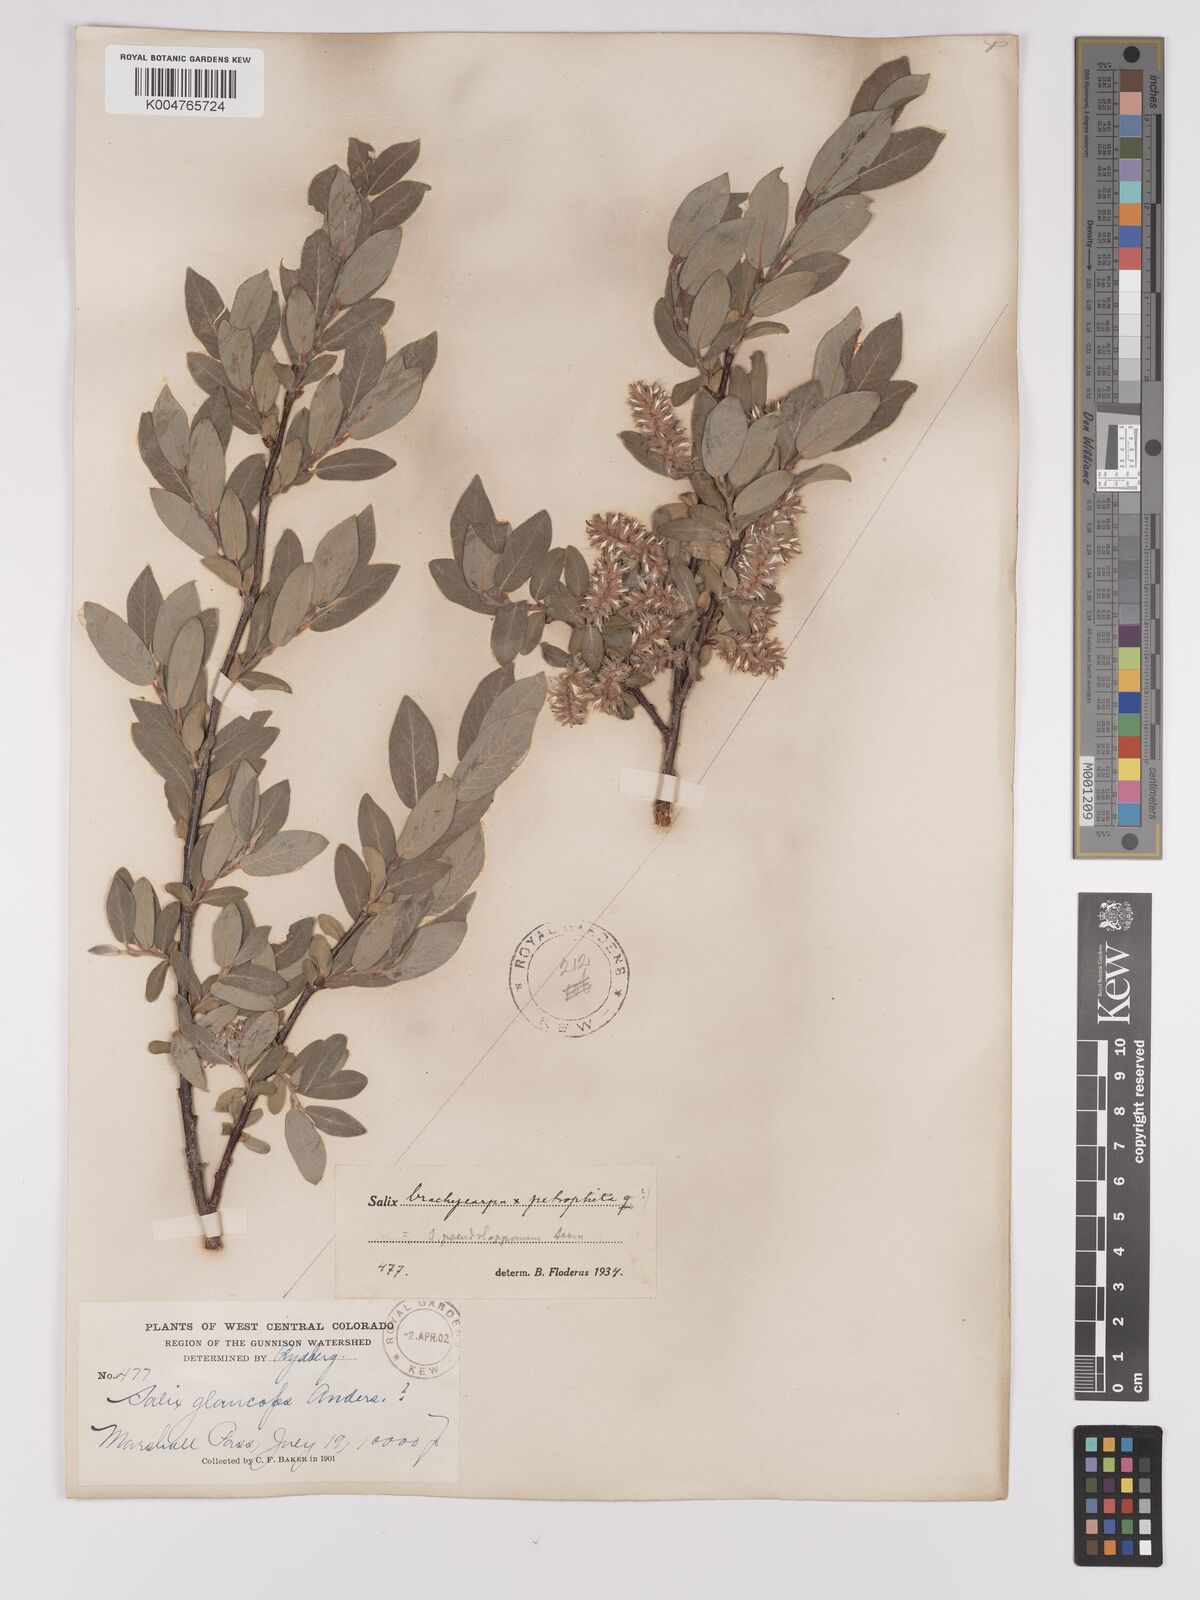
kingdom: Plantae
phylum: Tracheophyta
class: Magnoliopsida
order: Malpighiales
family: Salicaceae
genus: Salix
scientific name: Salix brachycarpa
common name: Barren-ground willow
